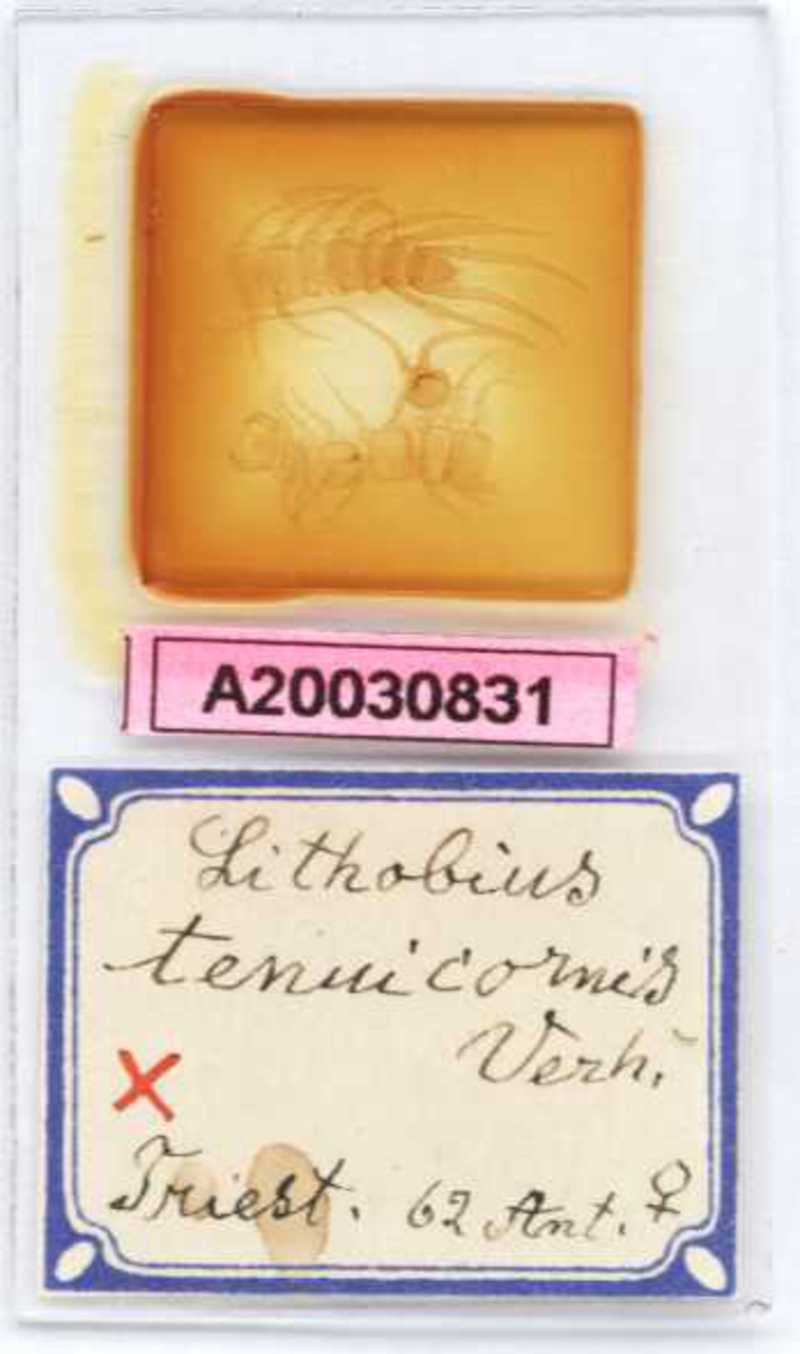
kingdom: Animalia
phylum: Arthropoda
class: Chilopoda
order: Lithobiomorpha
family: Lithobiidae
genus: Lithobius
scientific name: Lithobius tenuicornis
